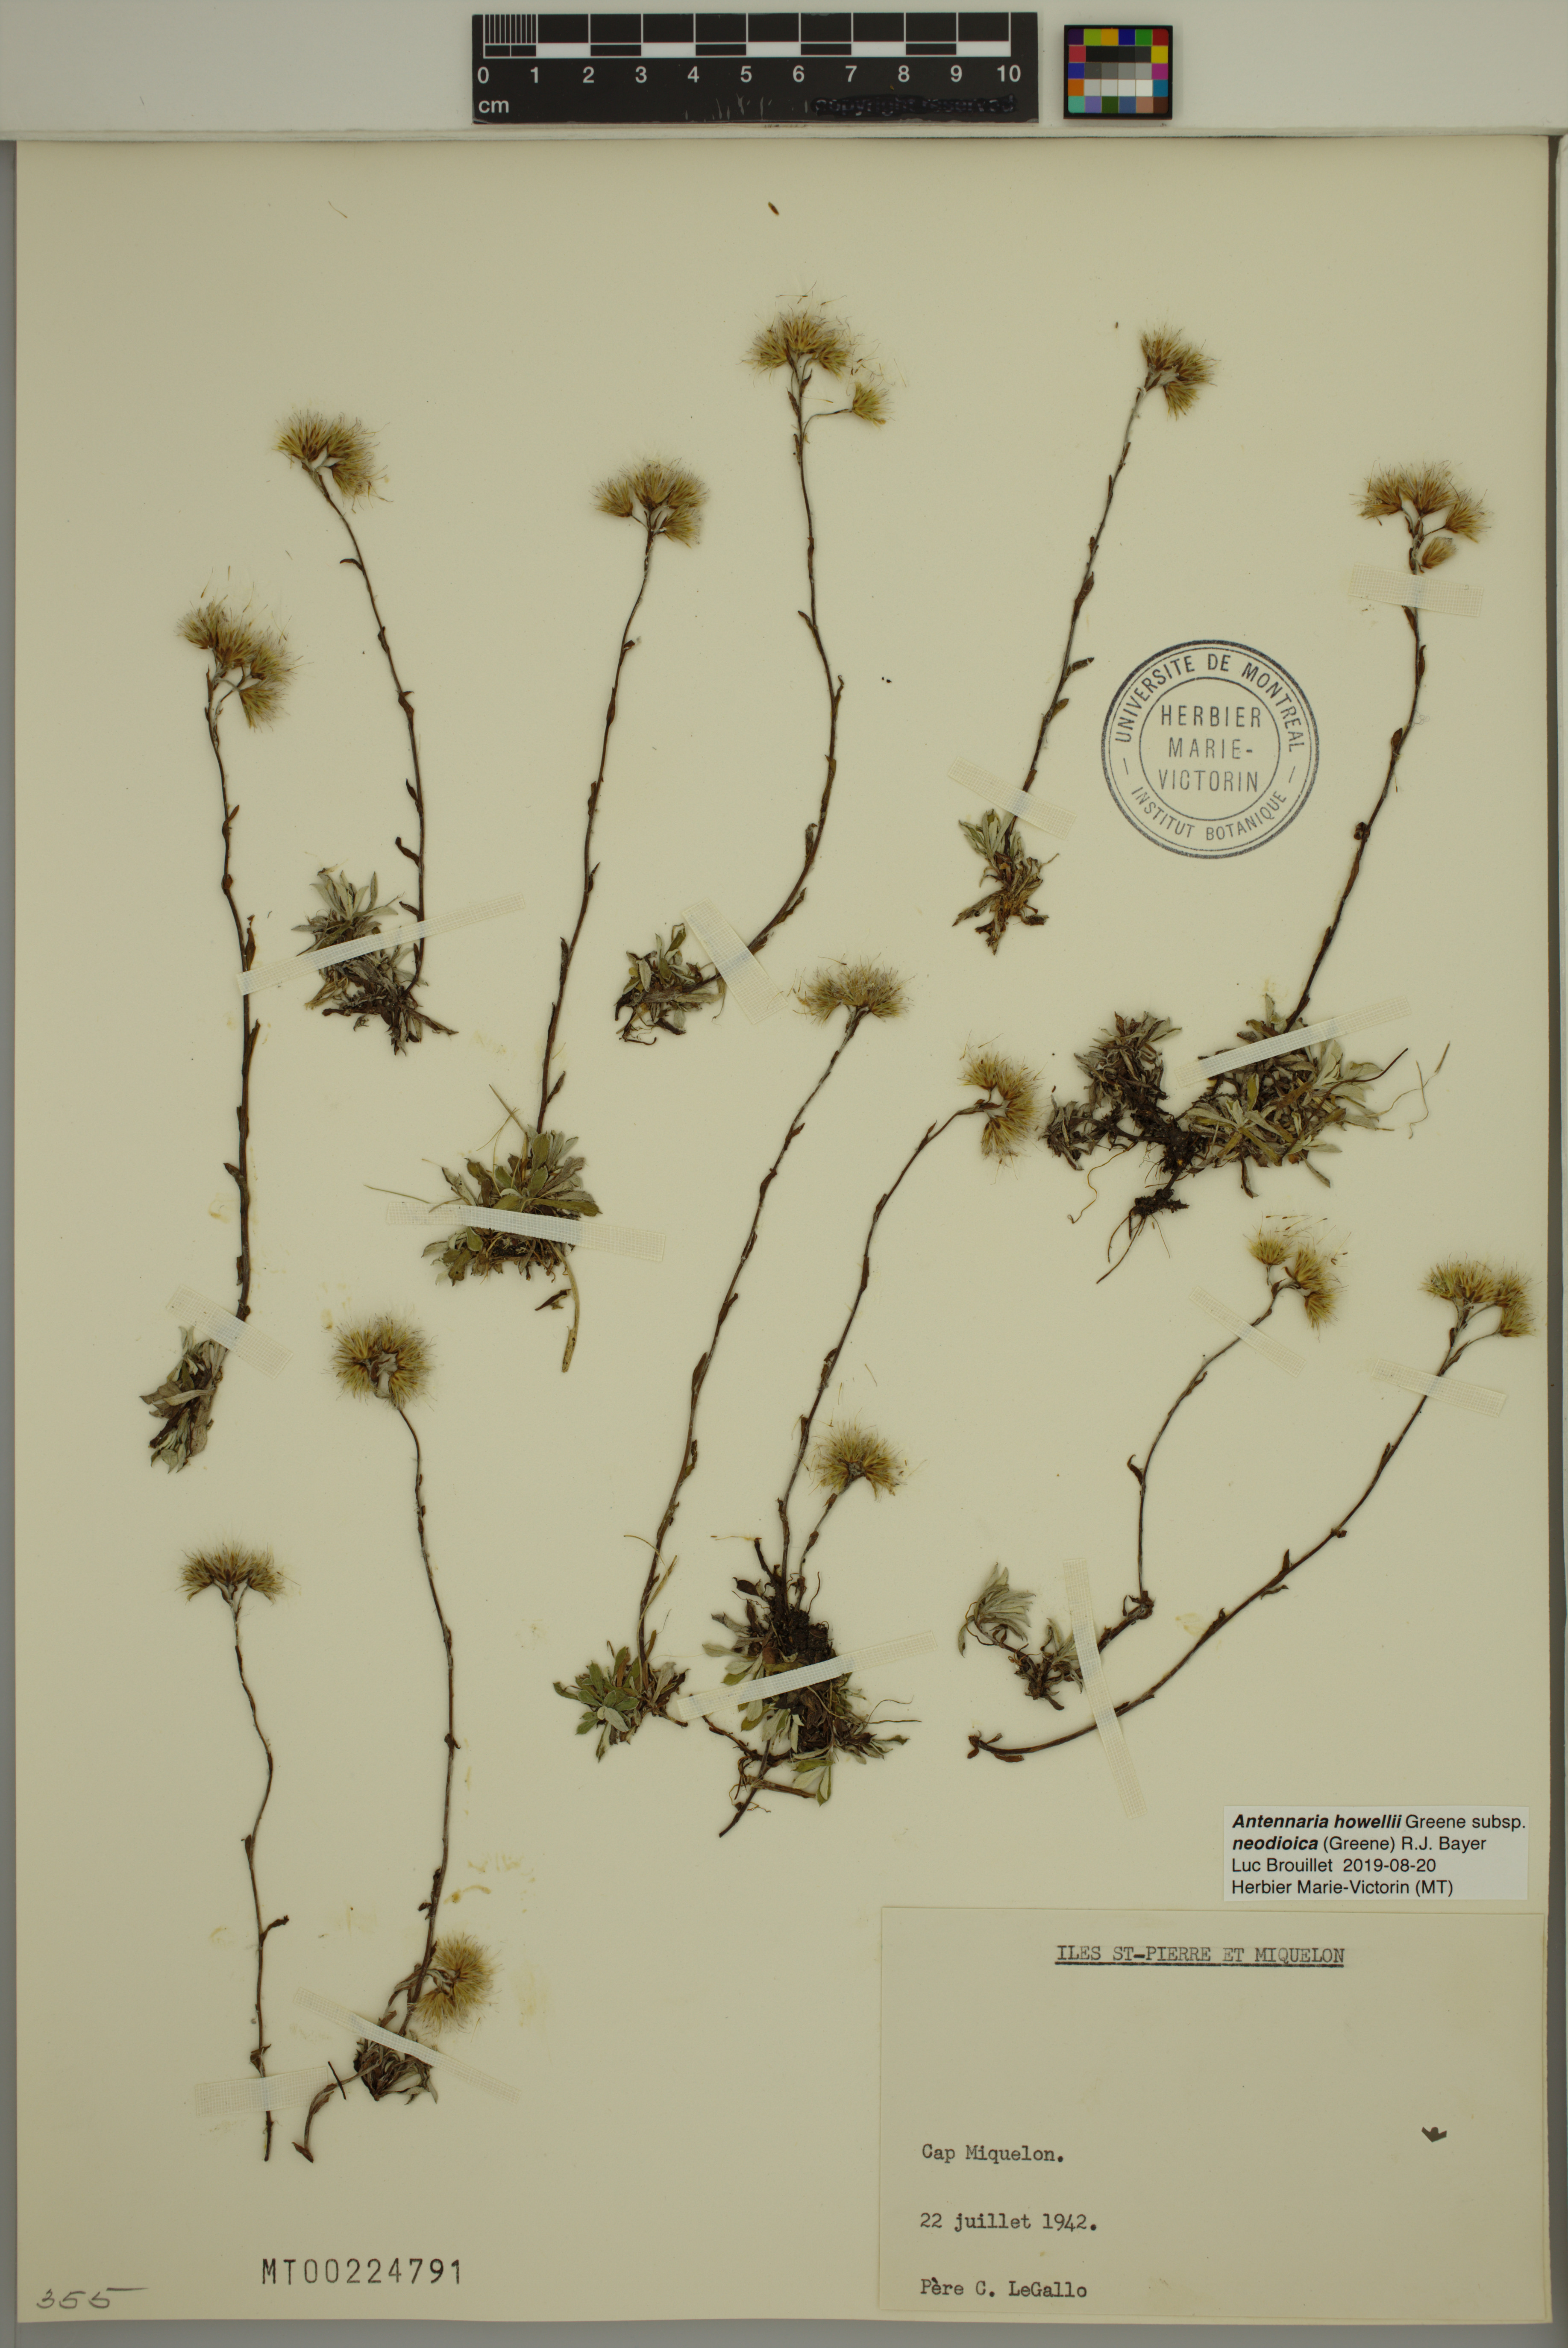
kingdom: Plantae
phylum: Tracheophyta
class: Magnoliopsida
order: Asterales
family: Asteraceae
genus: Antennaria
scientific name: Antennaria howellii
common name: Howell's pussytoes
